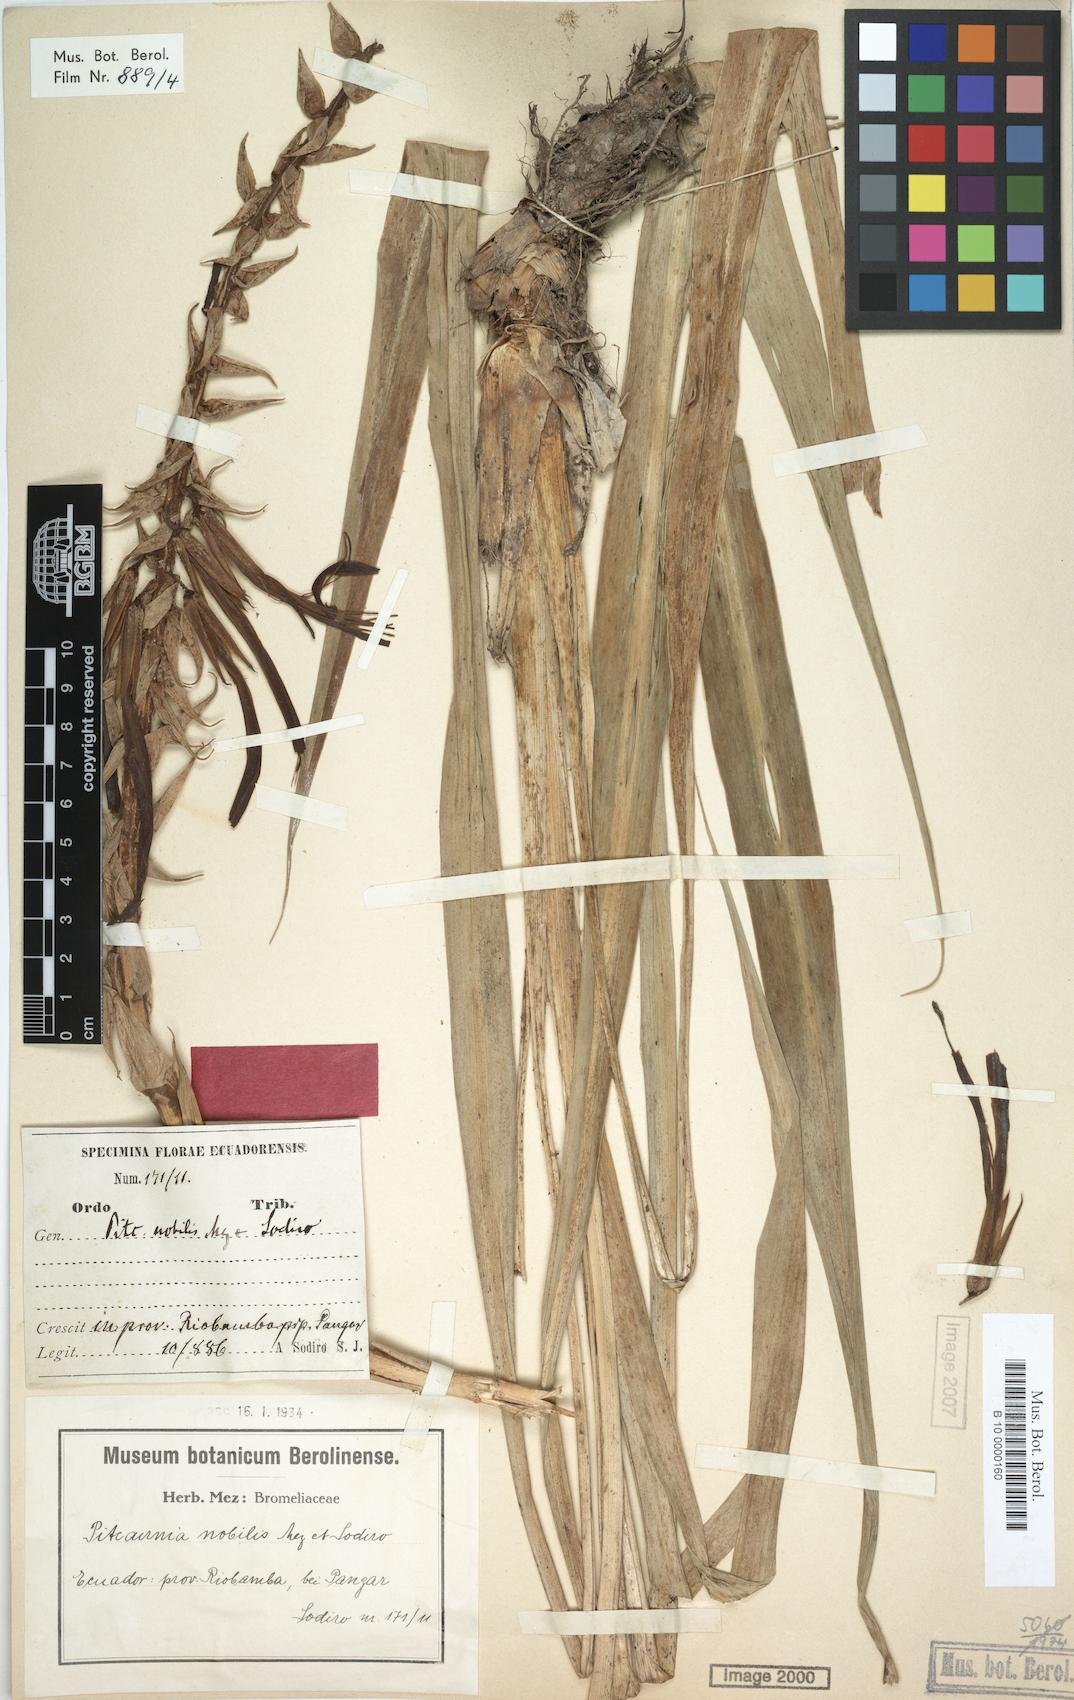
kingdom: Plantae
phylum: Tracheophyta
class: Liliopsida
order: Poales
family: Bromeliaceae
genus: Pitcairnia
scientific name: Pitcairnia nobilis
